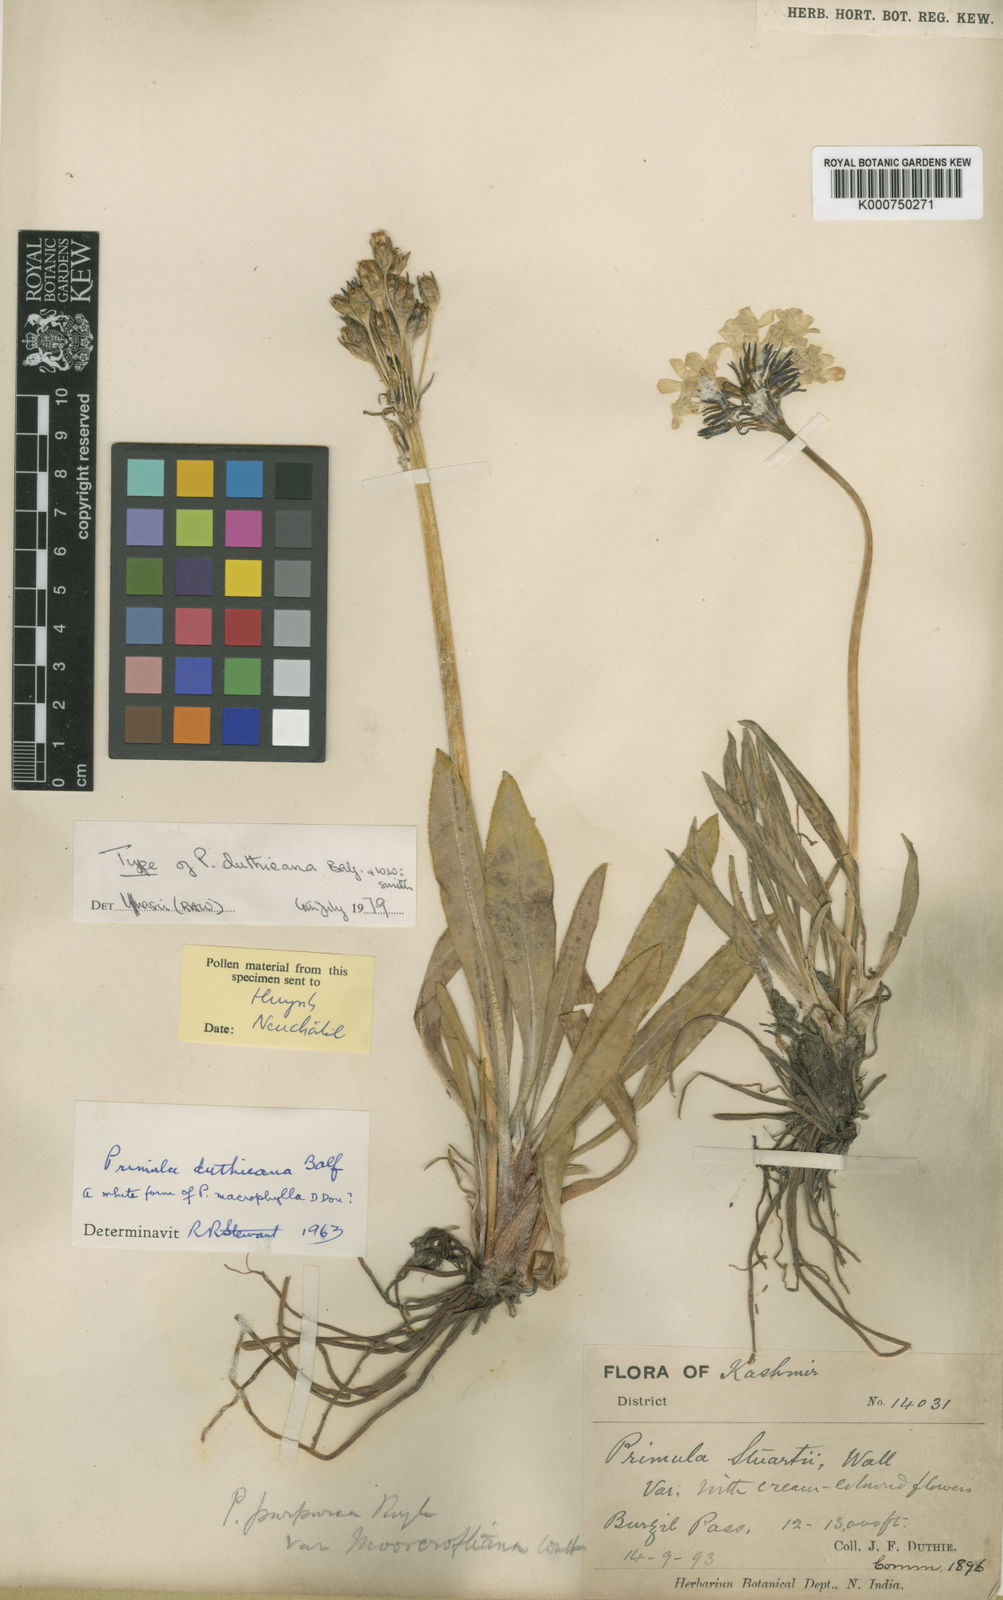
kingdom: Plantae
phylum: Tracheophyta
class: Magnoliopsida
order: Ericales
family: Primulaceae
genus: Primula
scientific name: Primula duthieana
